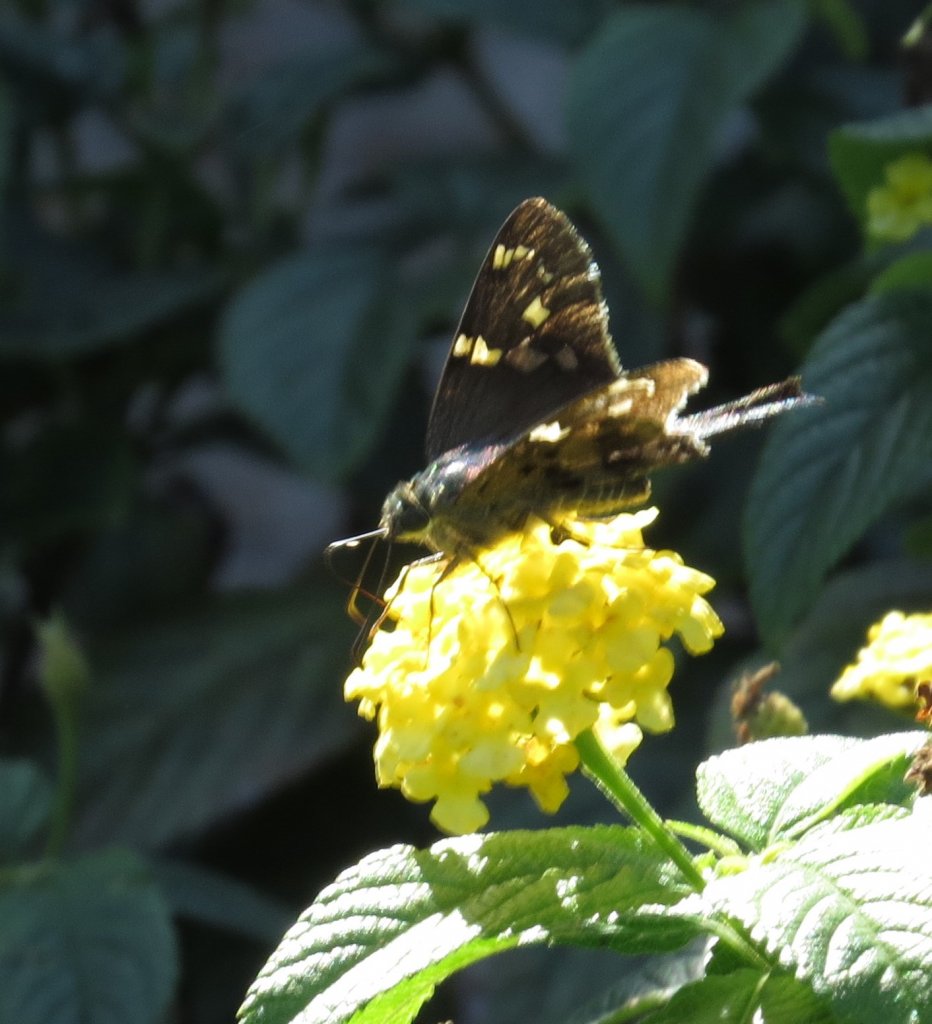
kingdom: Animalia
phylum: Arthropoda
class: Insecta
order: Lepidoptera
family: Hesperiidae
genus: Urbanus
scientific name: Urbanus proteus
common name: Long-tailed Skipper
